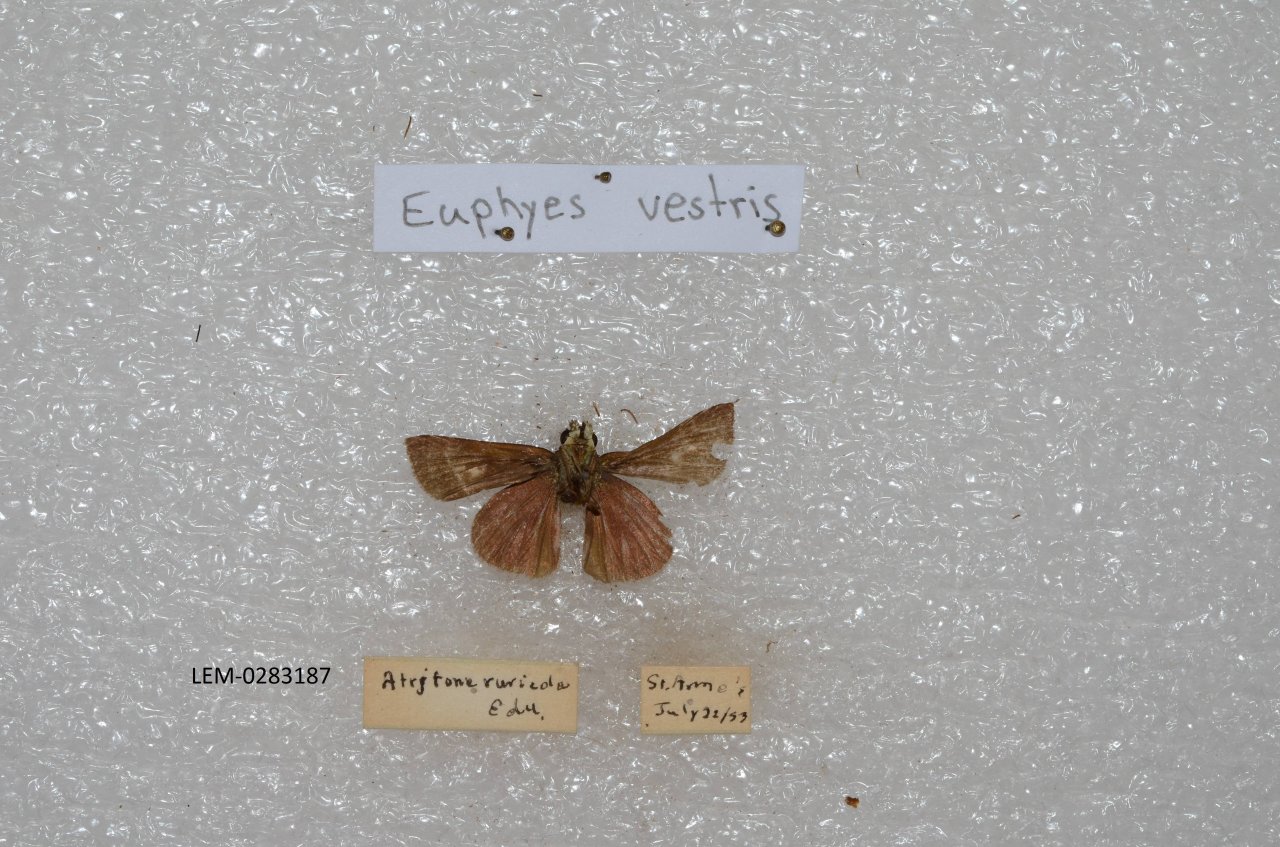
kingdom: Animalia
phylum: Arthropoda
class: Insecta
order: Lepidoptera
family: Hesperiidae
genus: Euphyes
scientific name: Euphyes vestris
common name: Dun Skipper
